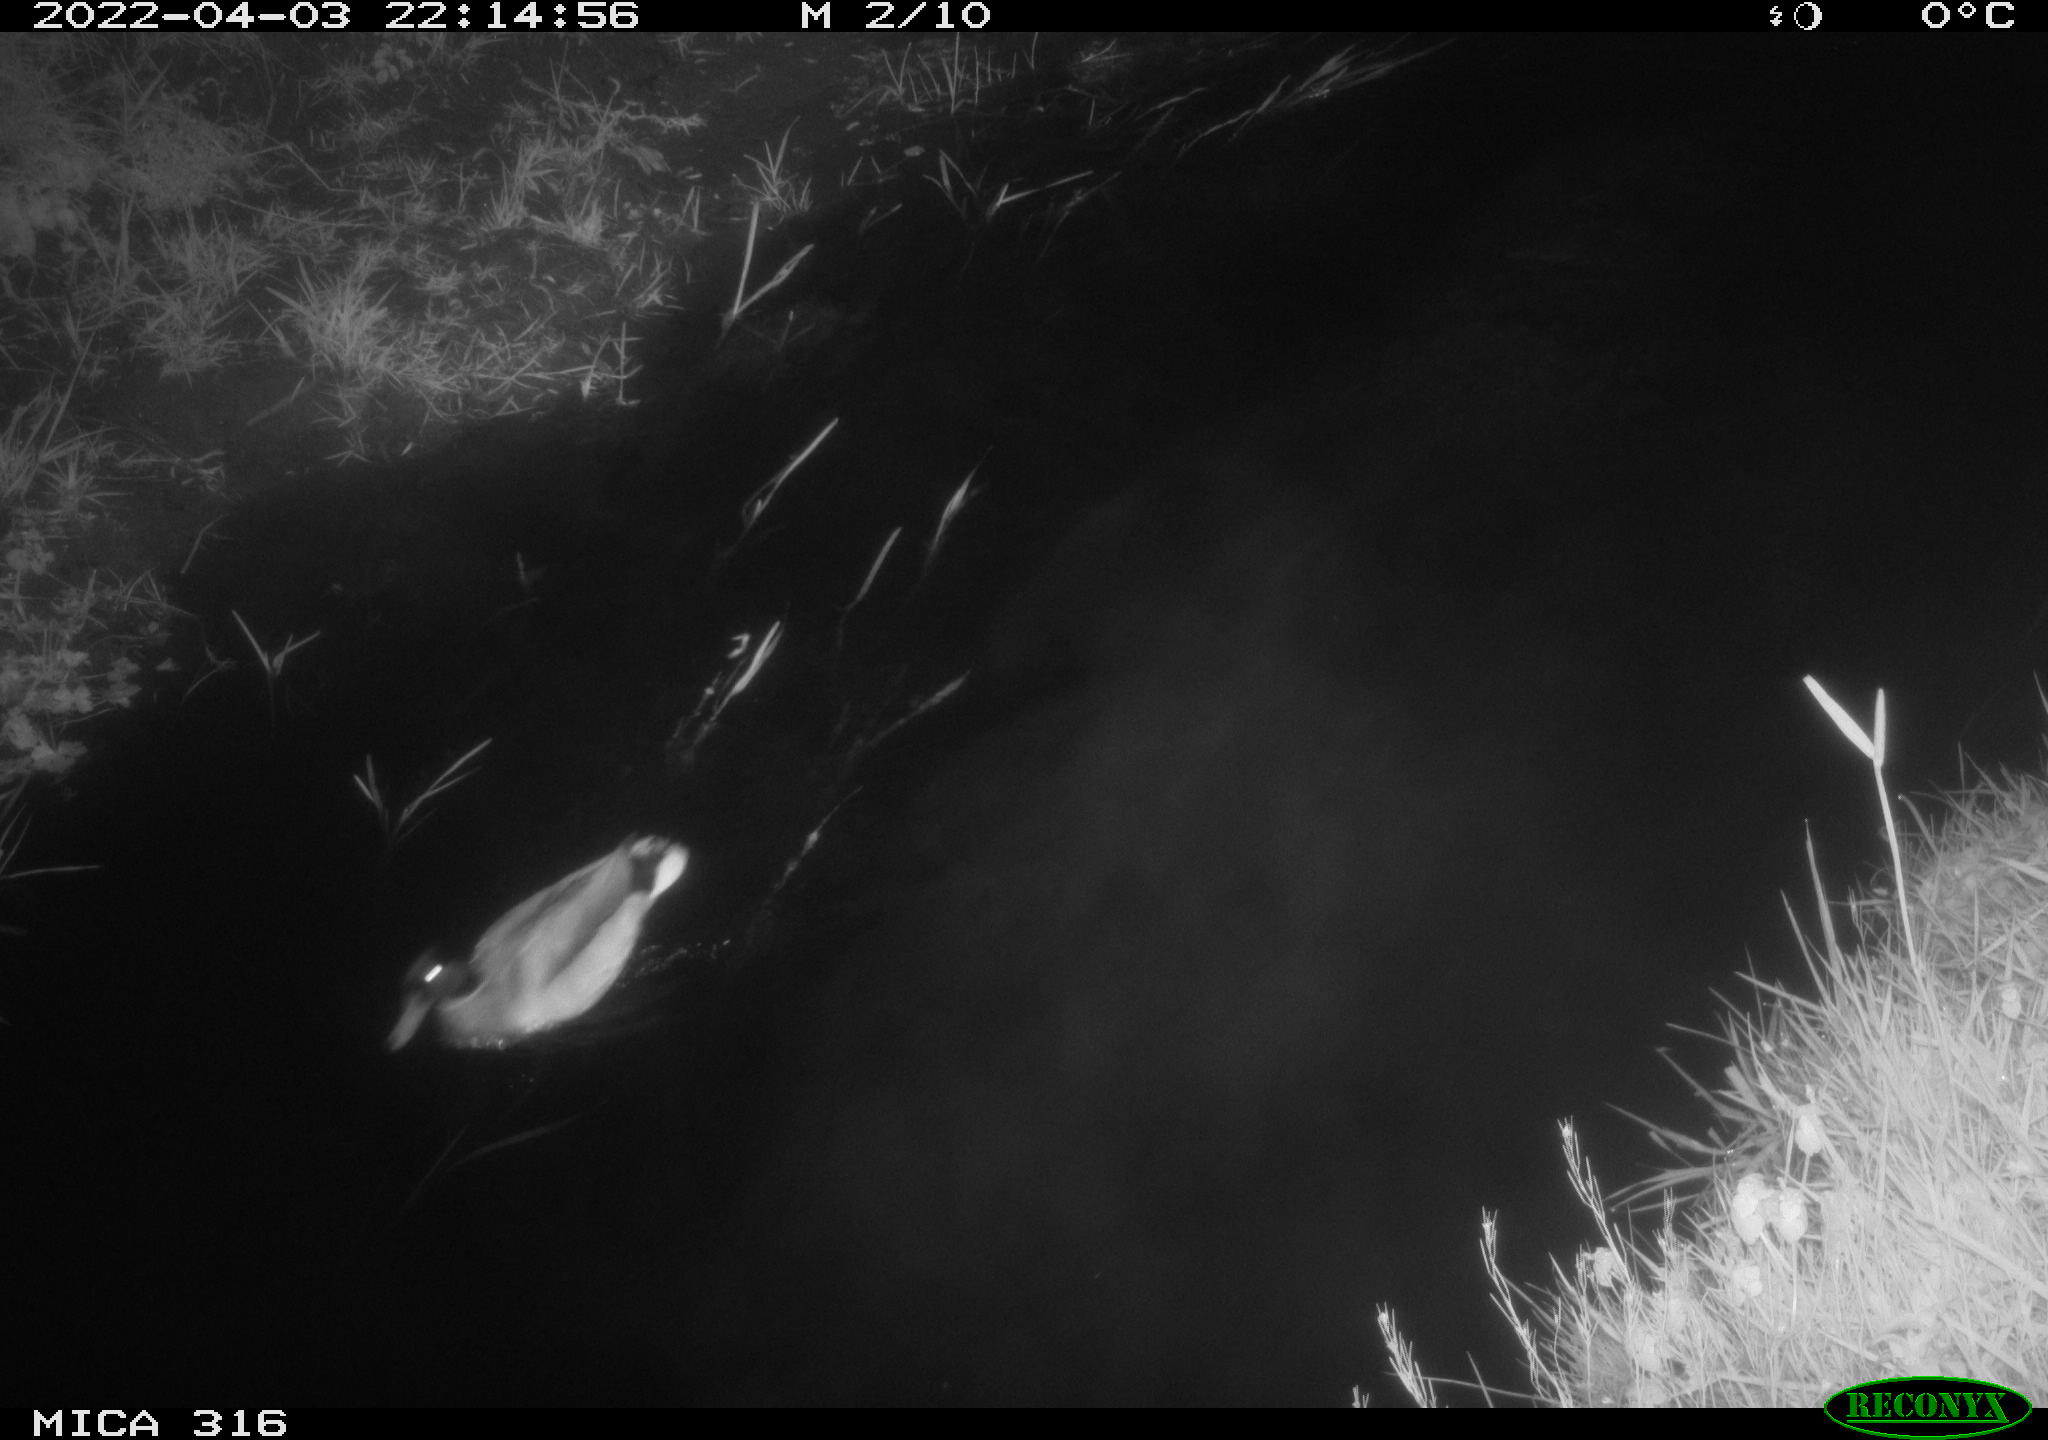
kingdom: Animalia
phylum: Chordata
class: Aves
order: Anseriformes
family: Anatidae
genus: Anas
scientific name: Anas platyrhynchos
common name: Mallard
